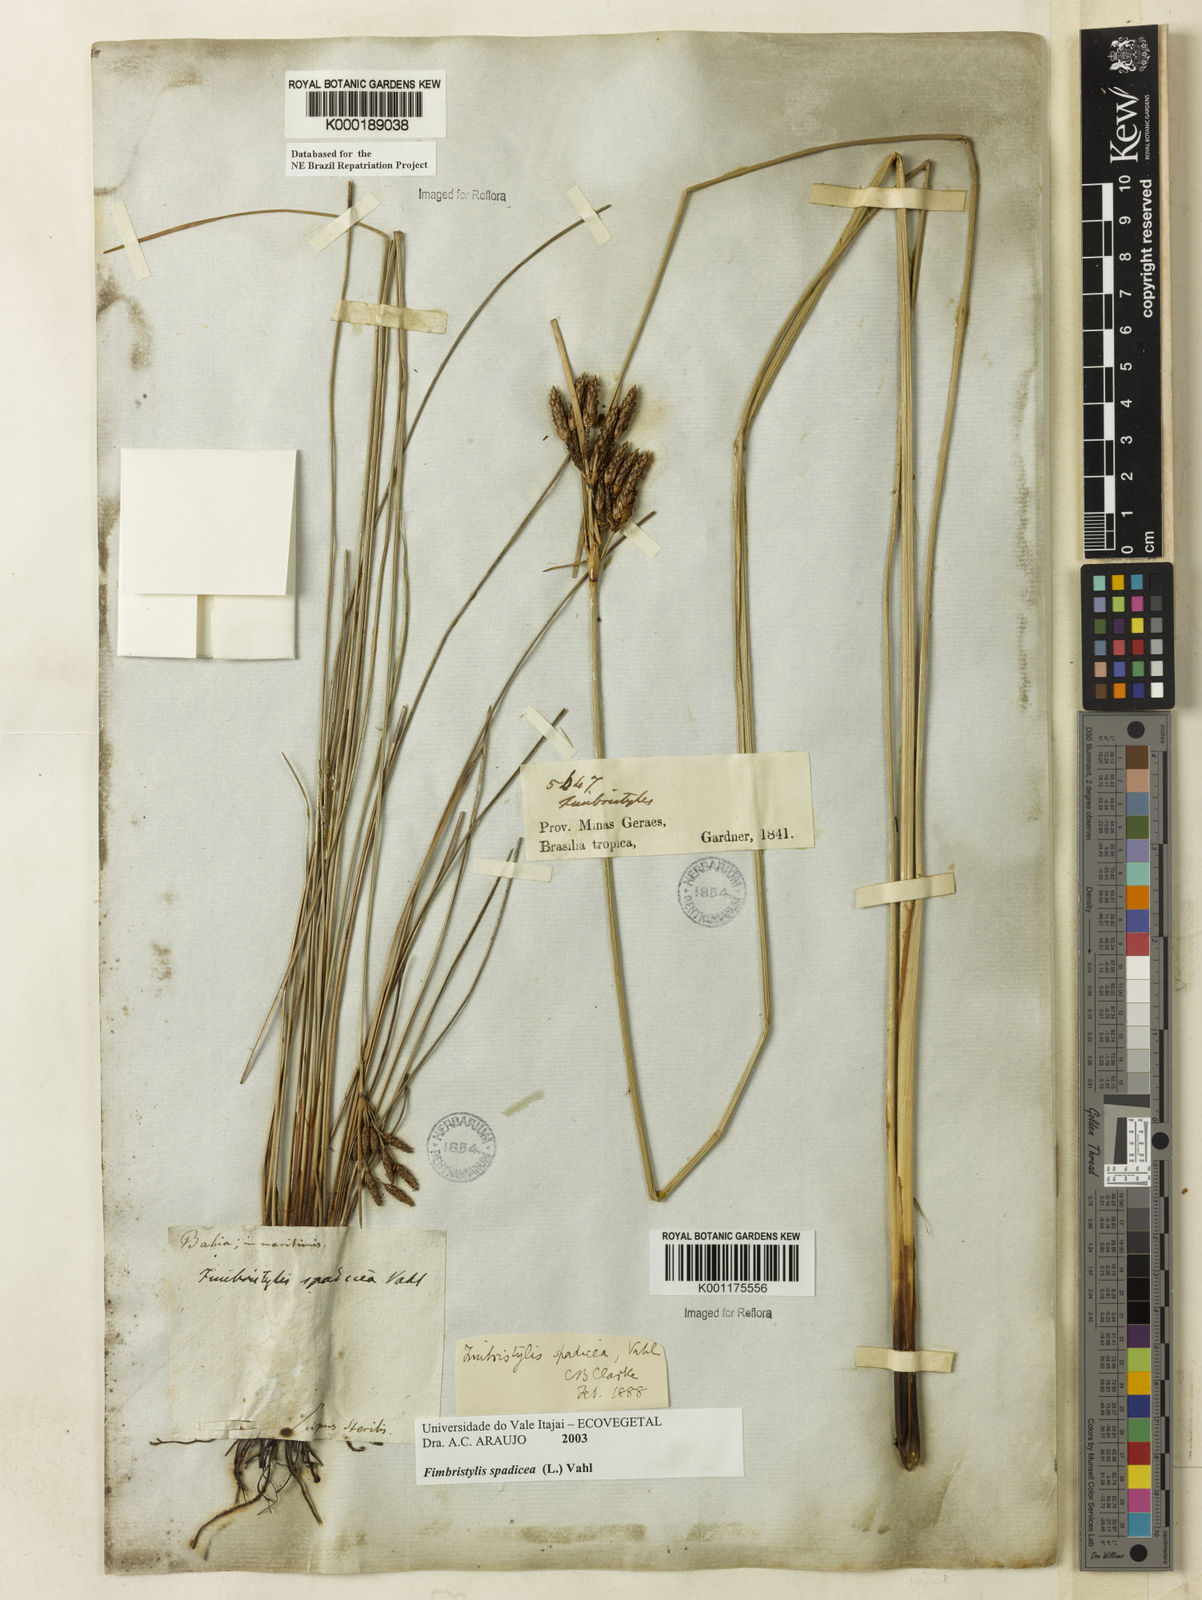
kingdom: Plantae
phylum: Tracheophyta
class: Liliopsida
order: Poales
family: Cyperaceae
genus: Fimbristylis
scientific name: Fimbristylis spadicea
